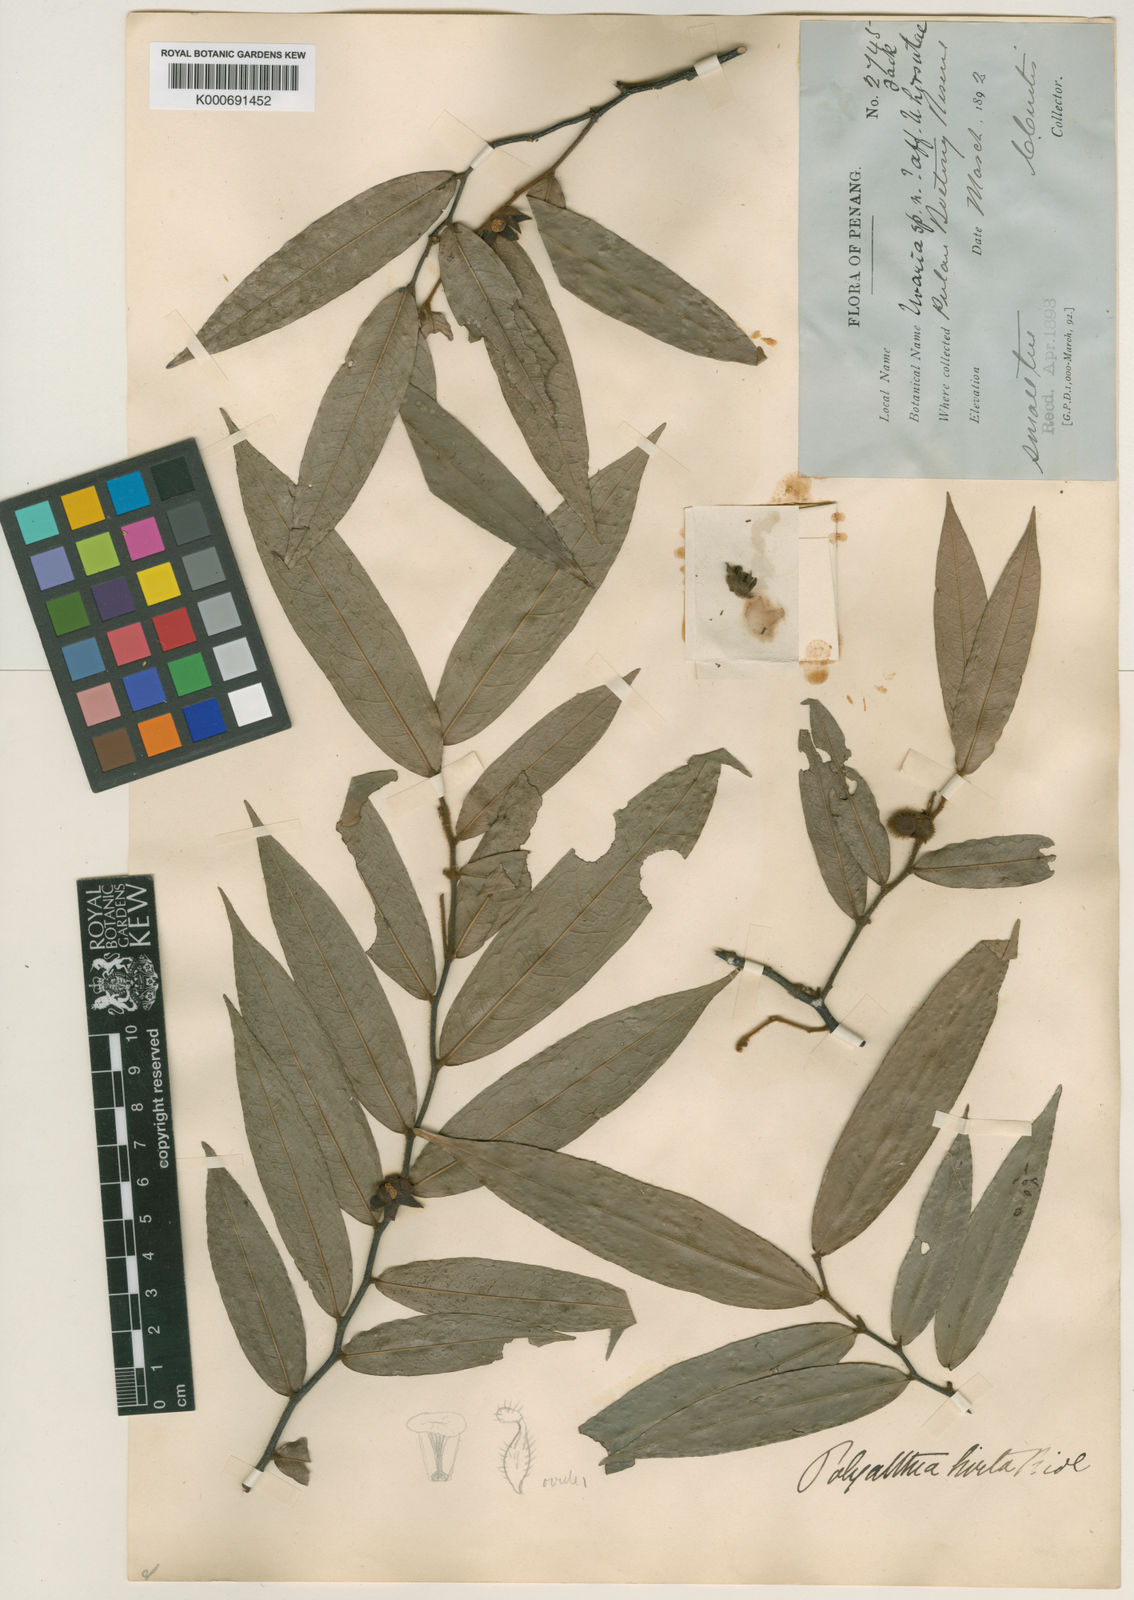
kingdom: Plantae
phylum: Tracheophyta
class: Magnoliopsida
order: Magnoliales
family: Annonaceae
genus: Polyalthia
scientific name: Polyalthia hirtifolia
